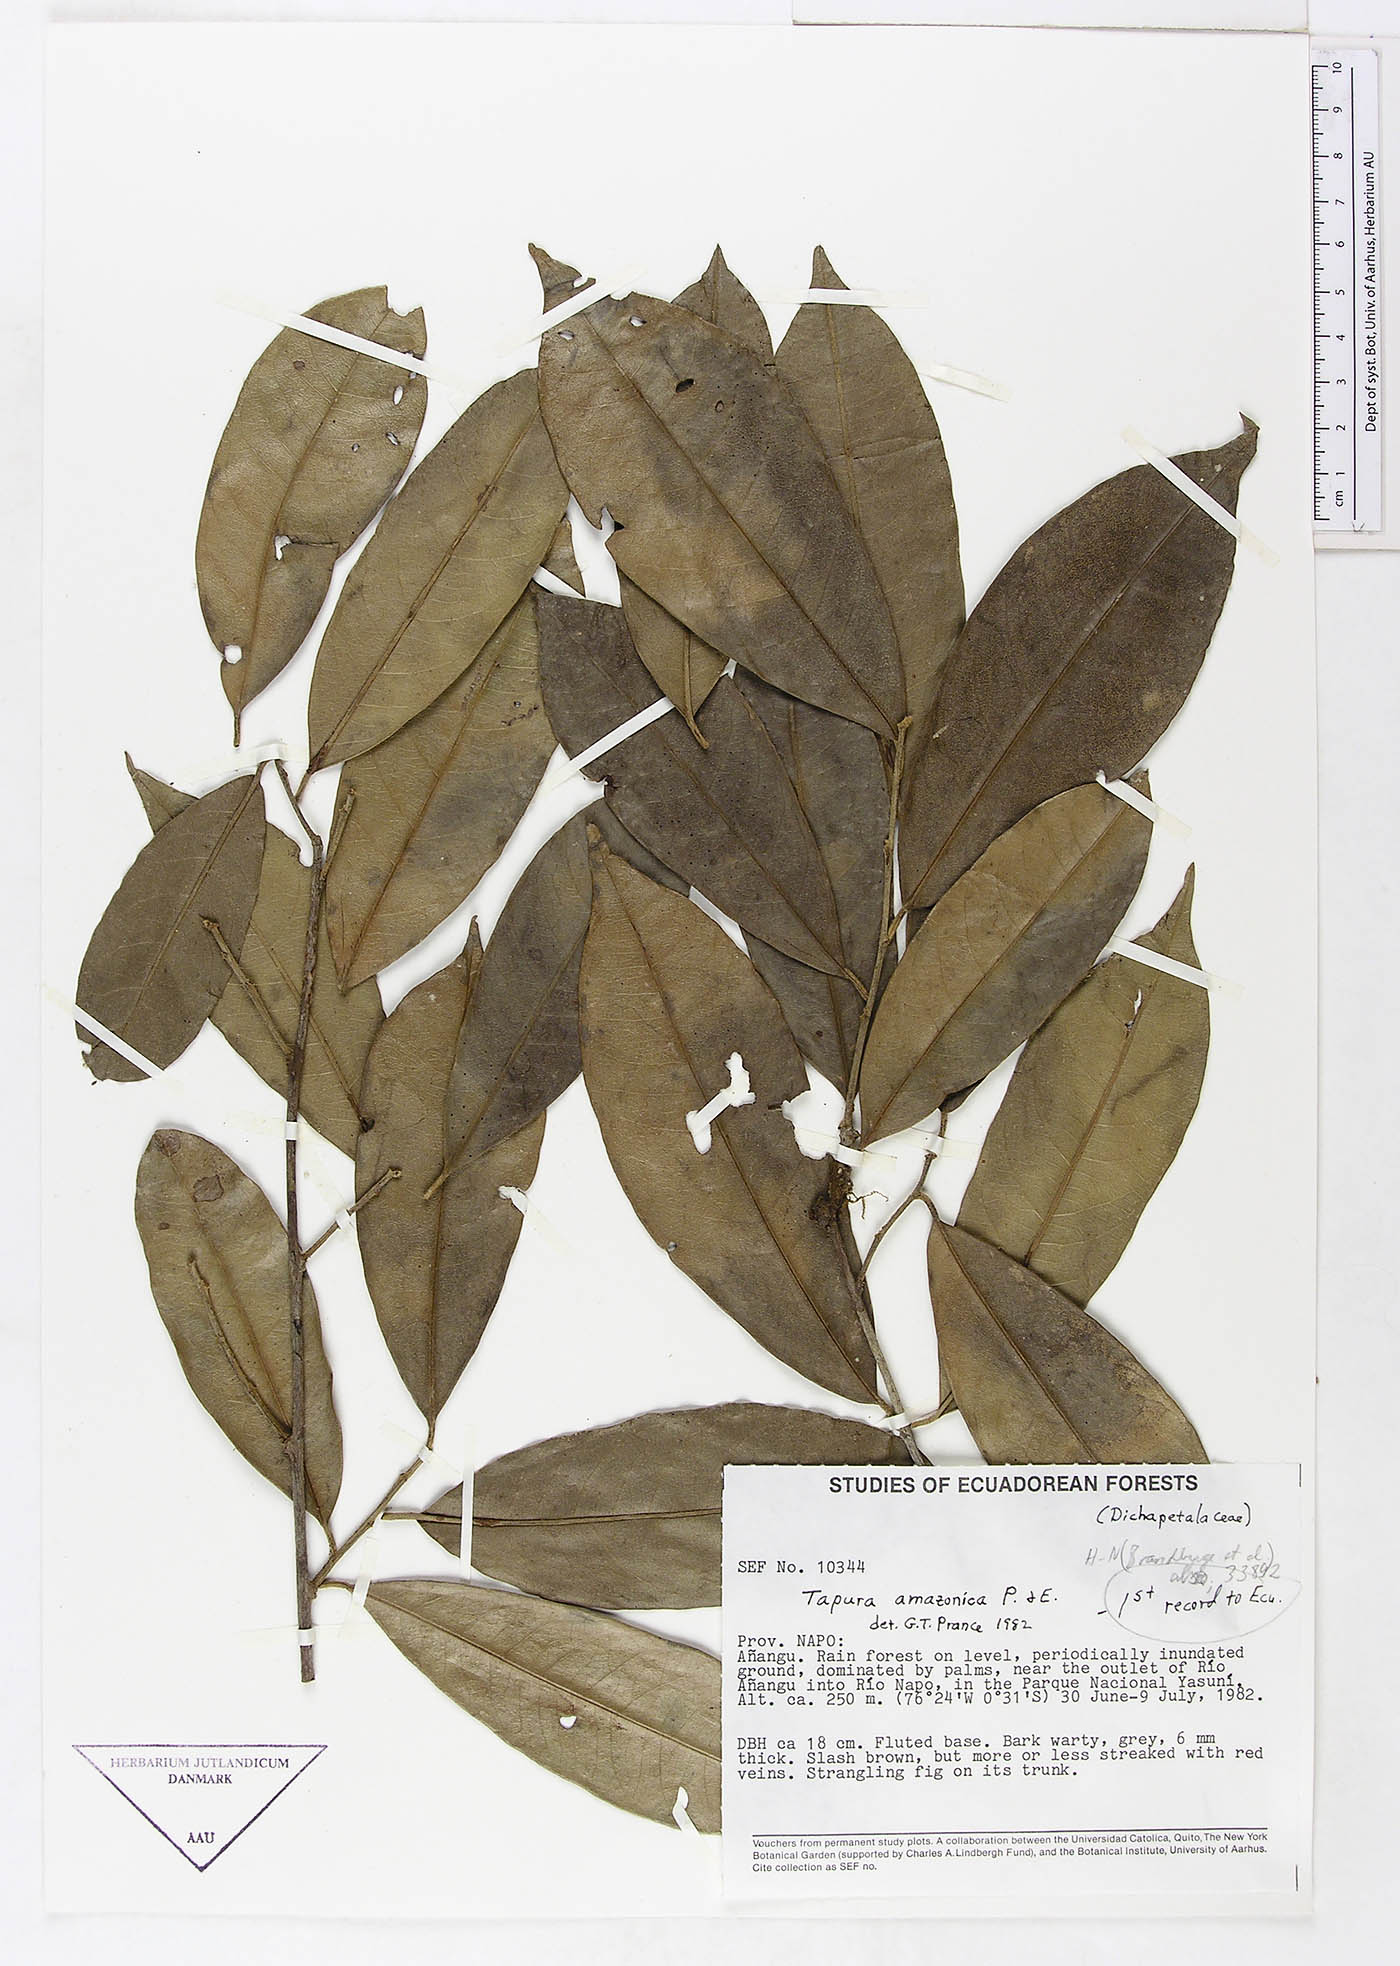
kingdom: Plantae
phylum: Tracheophyta
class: Magnoliopsida
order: Malpighiales
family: Dichapetalaceae
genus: Tapura
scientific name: Tapura amazonica
